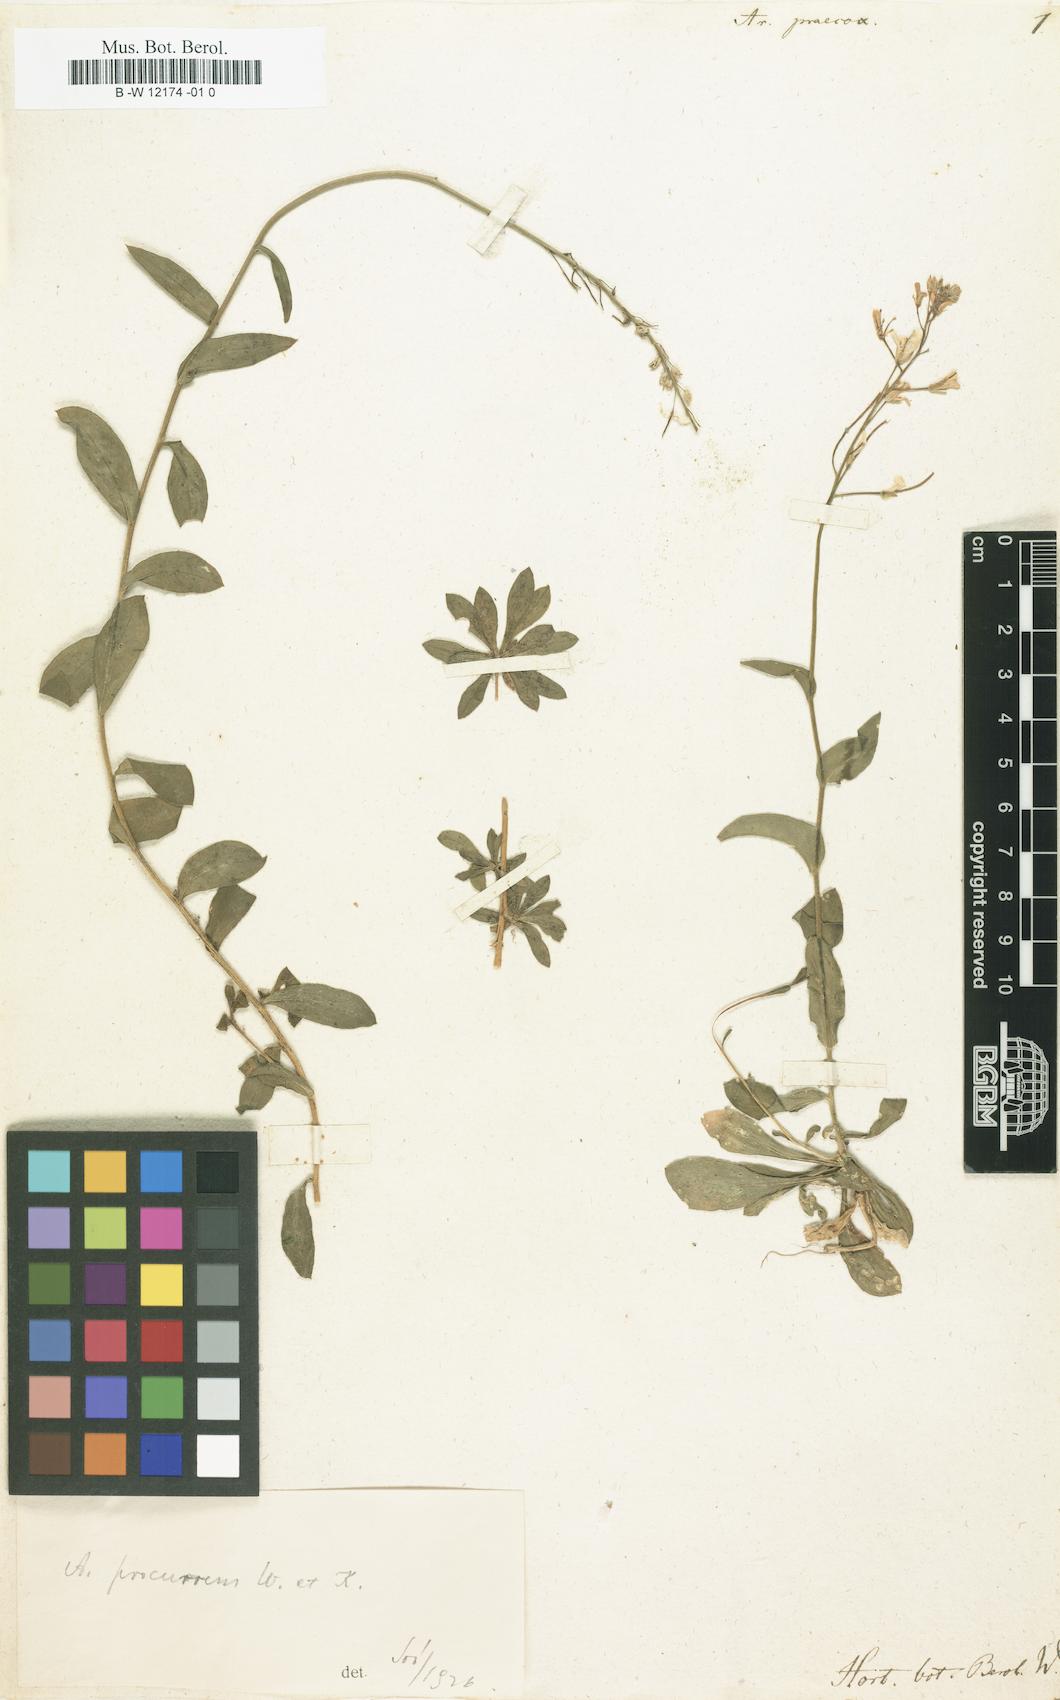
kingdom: Plantae
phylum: Tracheophyta
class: Magnoliopsida
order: Brassicales
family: Brassicaceae
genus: Arabis
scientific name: Arabis procurrens
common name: Running rockcress
